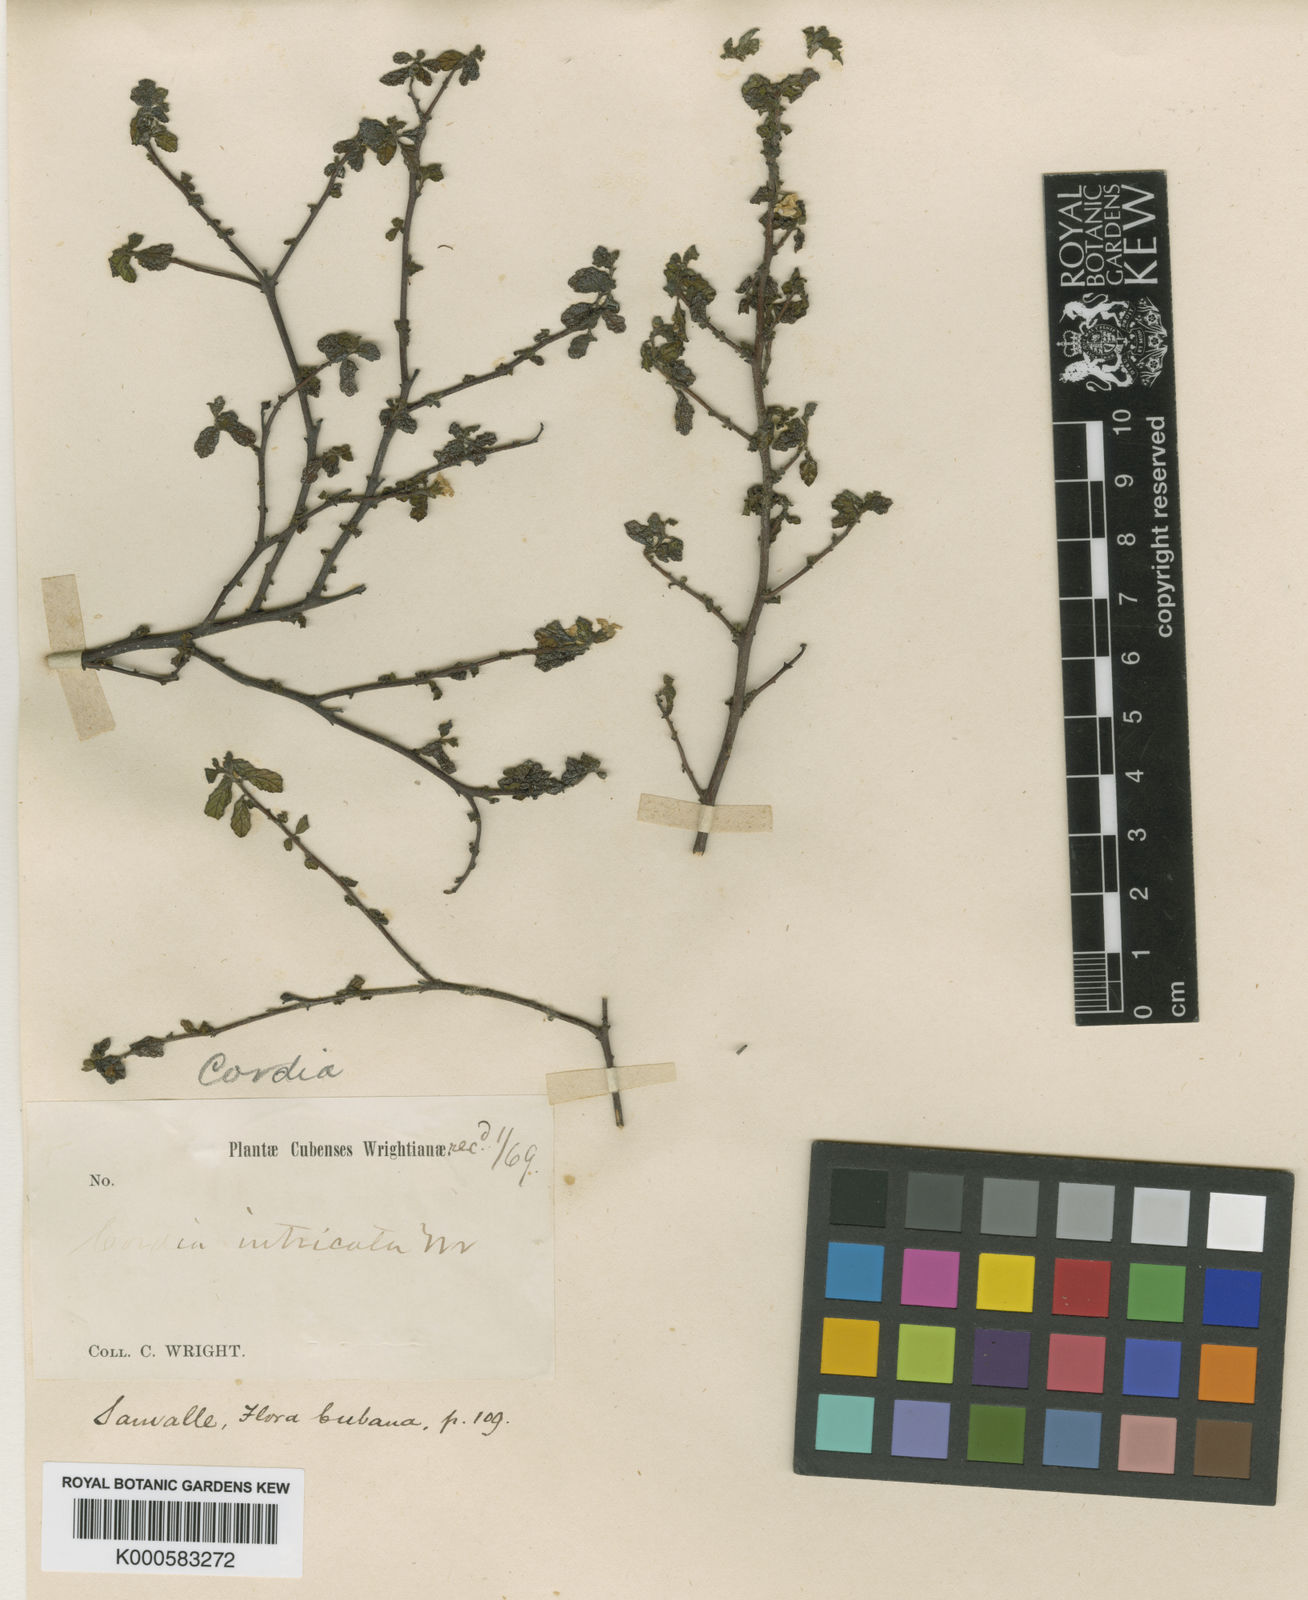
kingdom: Plantae
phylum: Tracheophyta
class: Magnoliopsida
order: Boraginales
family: Cordiaceae
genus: Varronia
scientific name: Varronia intricata
